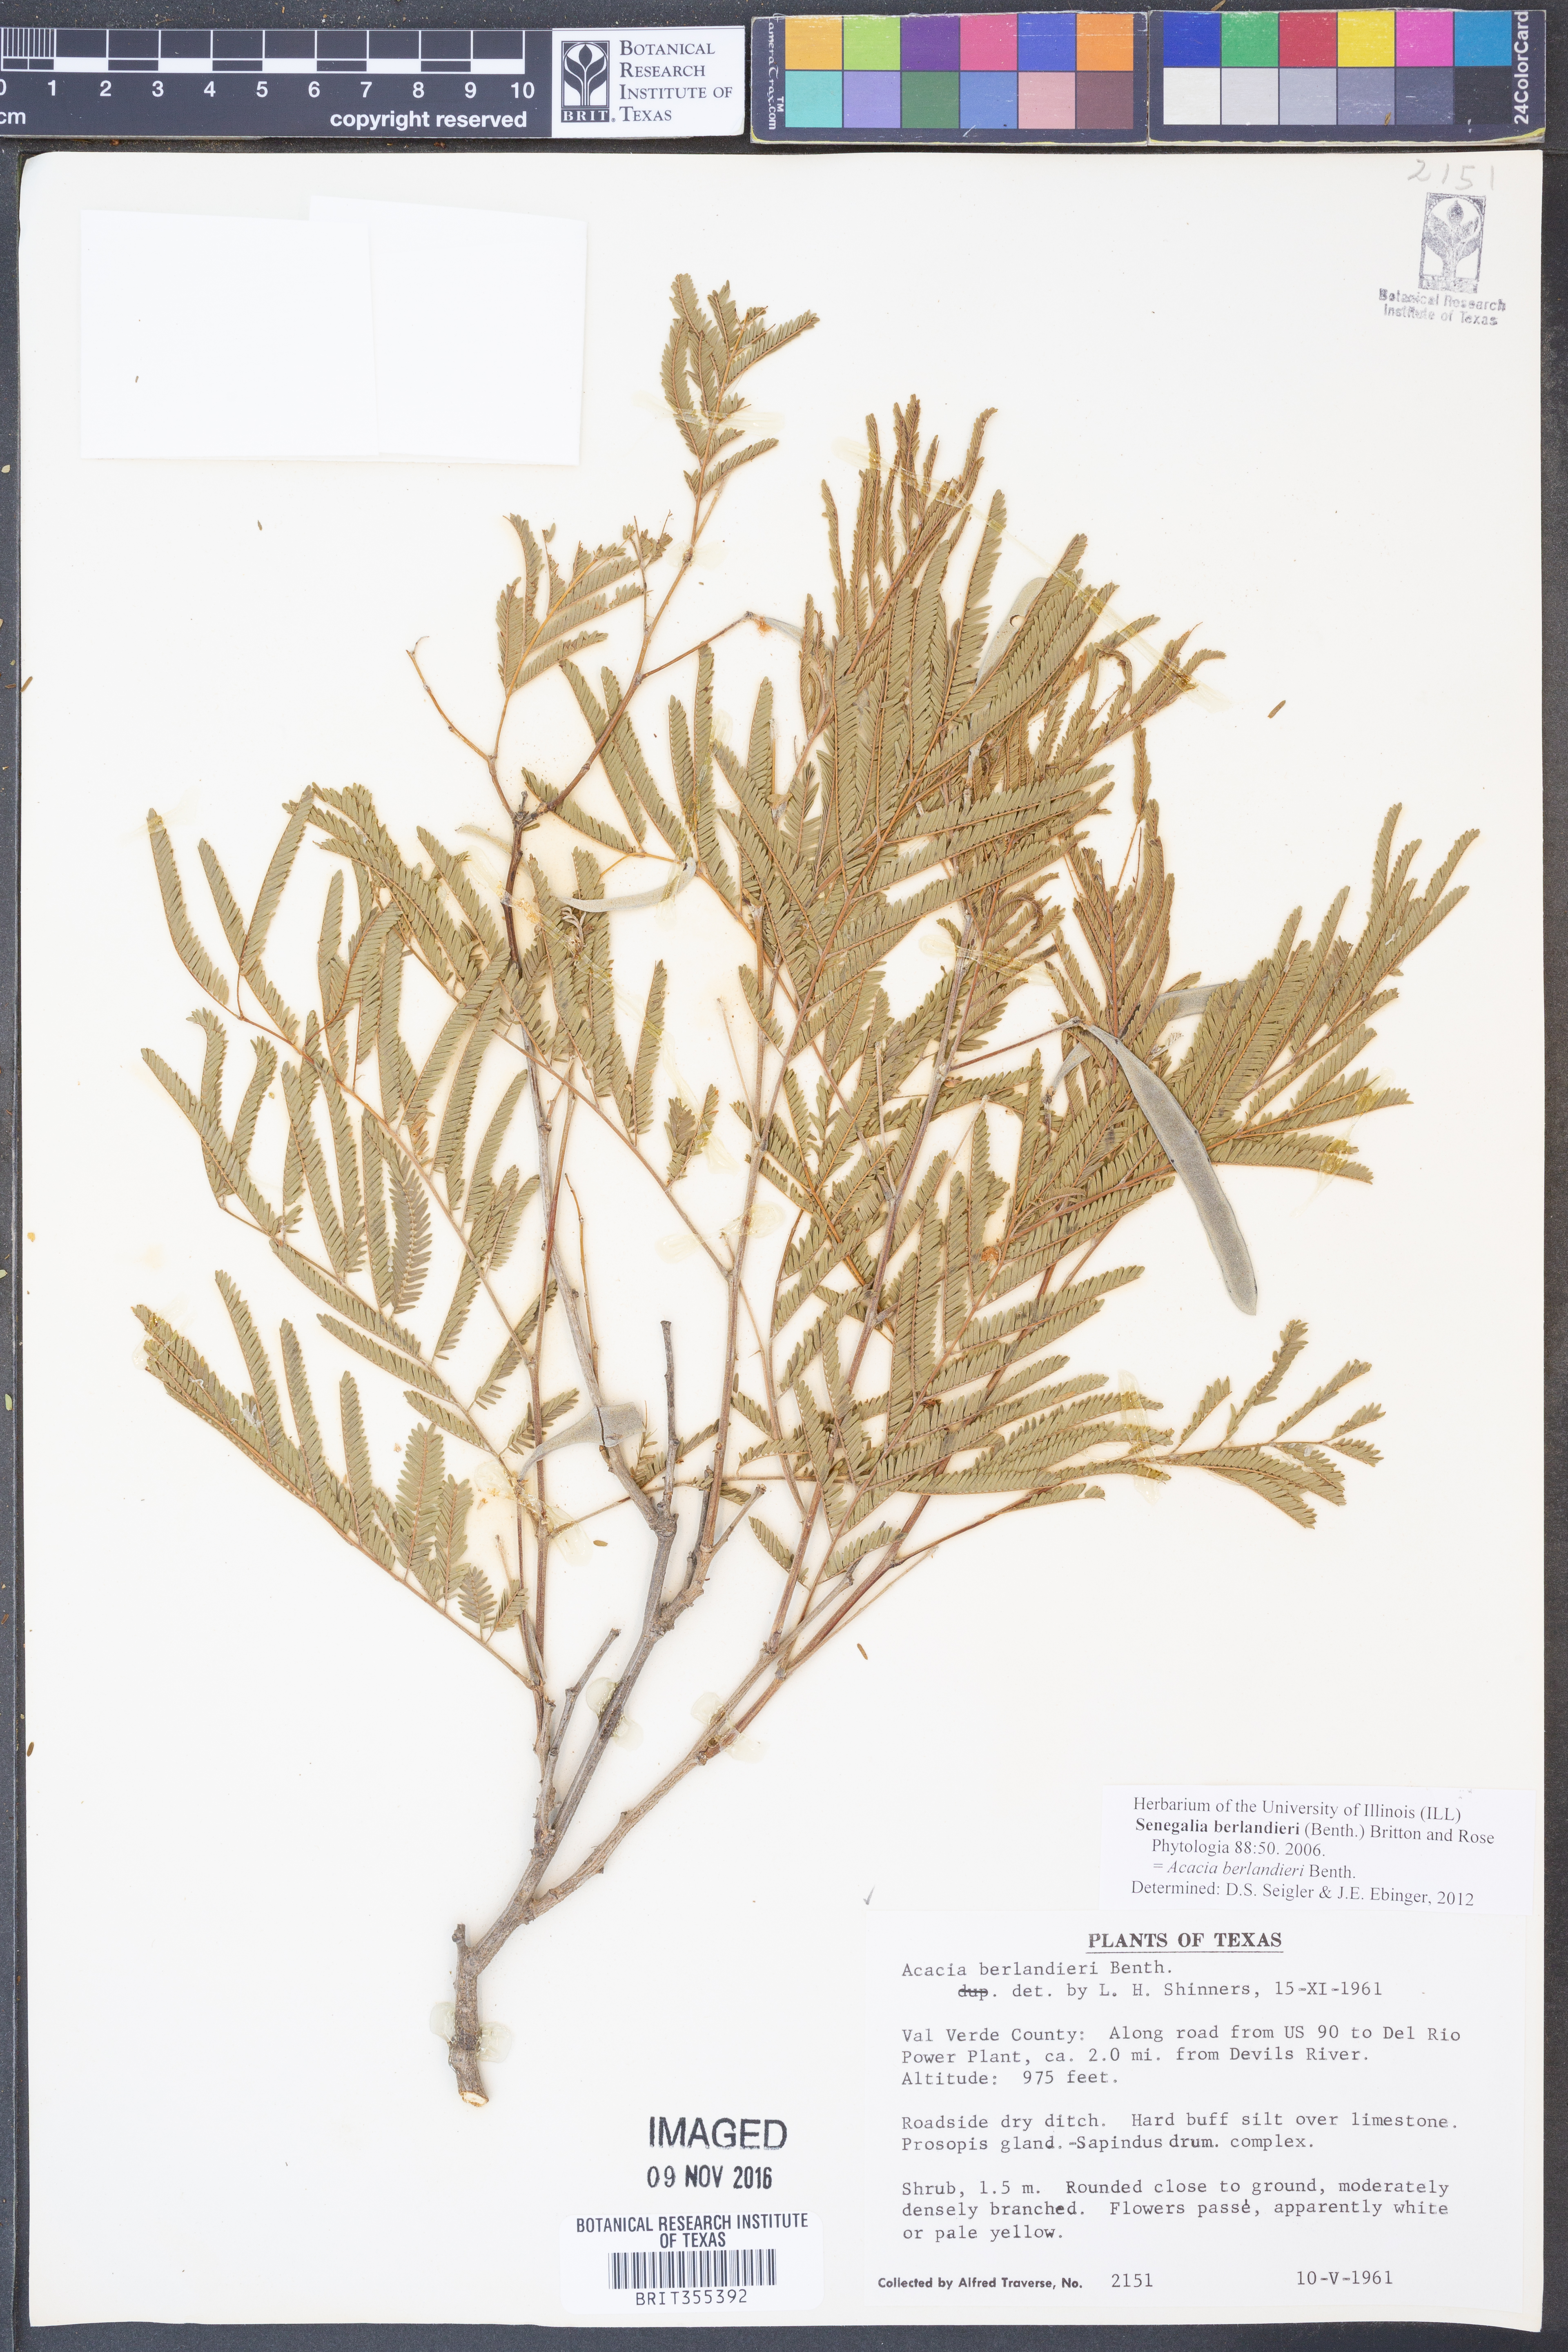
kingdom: Plantae
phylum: Tracheophyta
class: Magnoliopsida
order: Fabales
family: Fabaceae
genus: Senegalia
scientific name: Senegalia berlandieri
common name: Berlandier acacia
